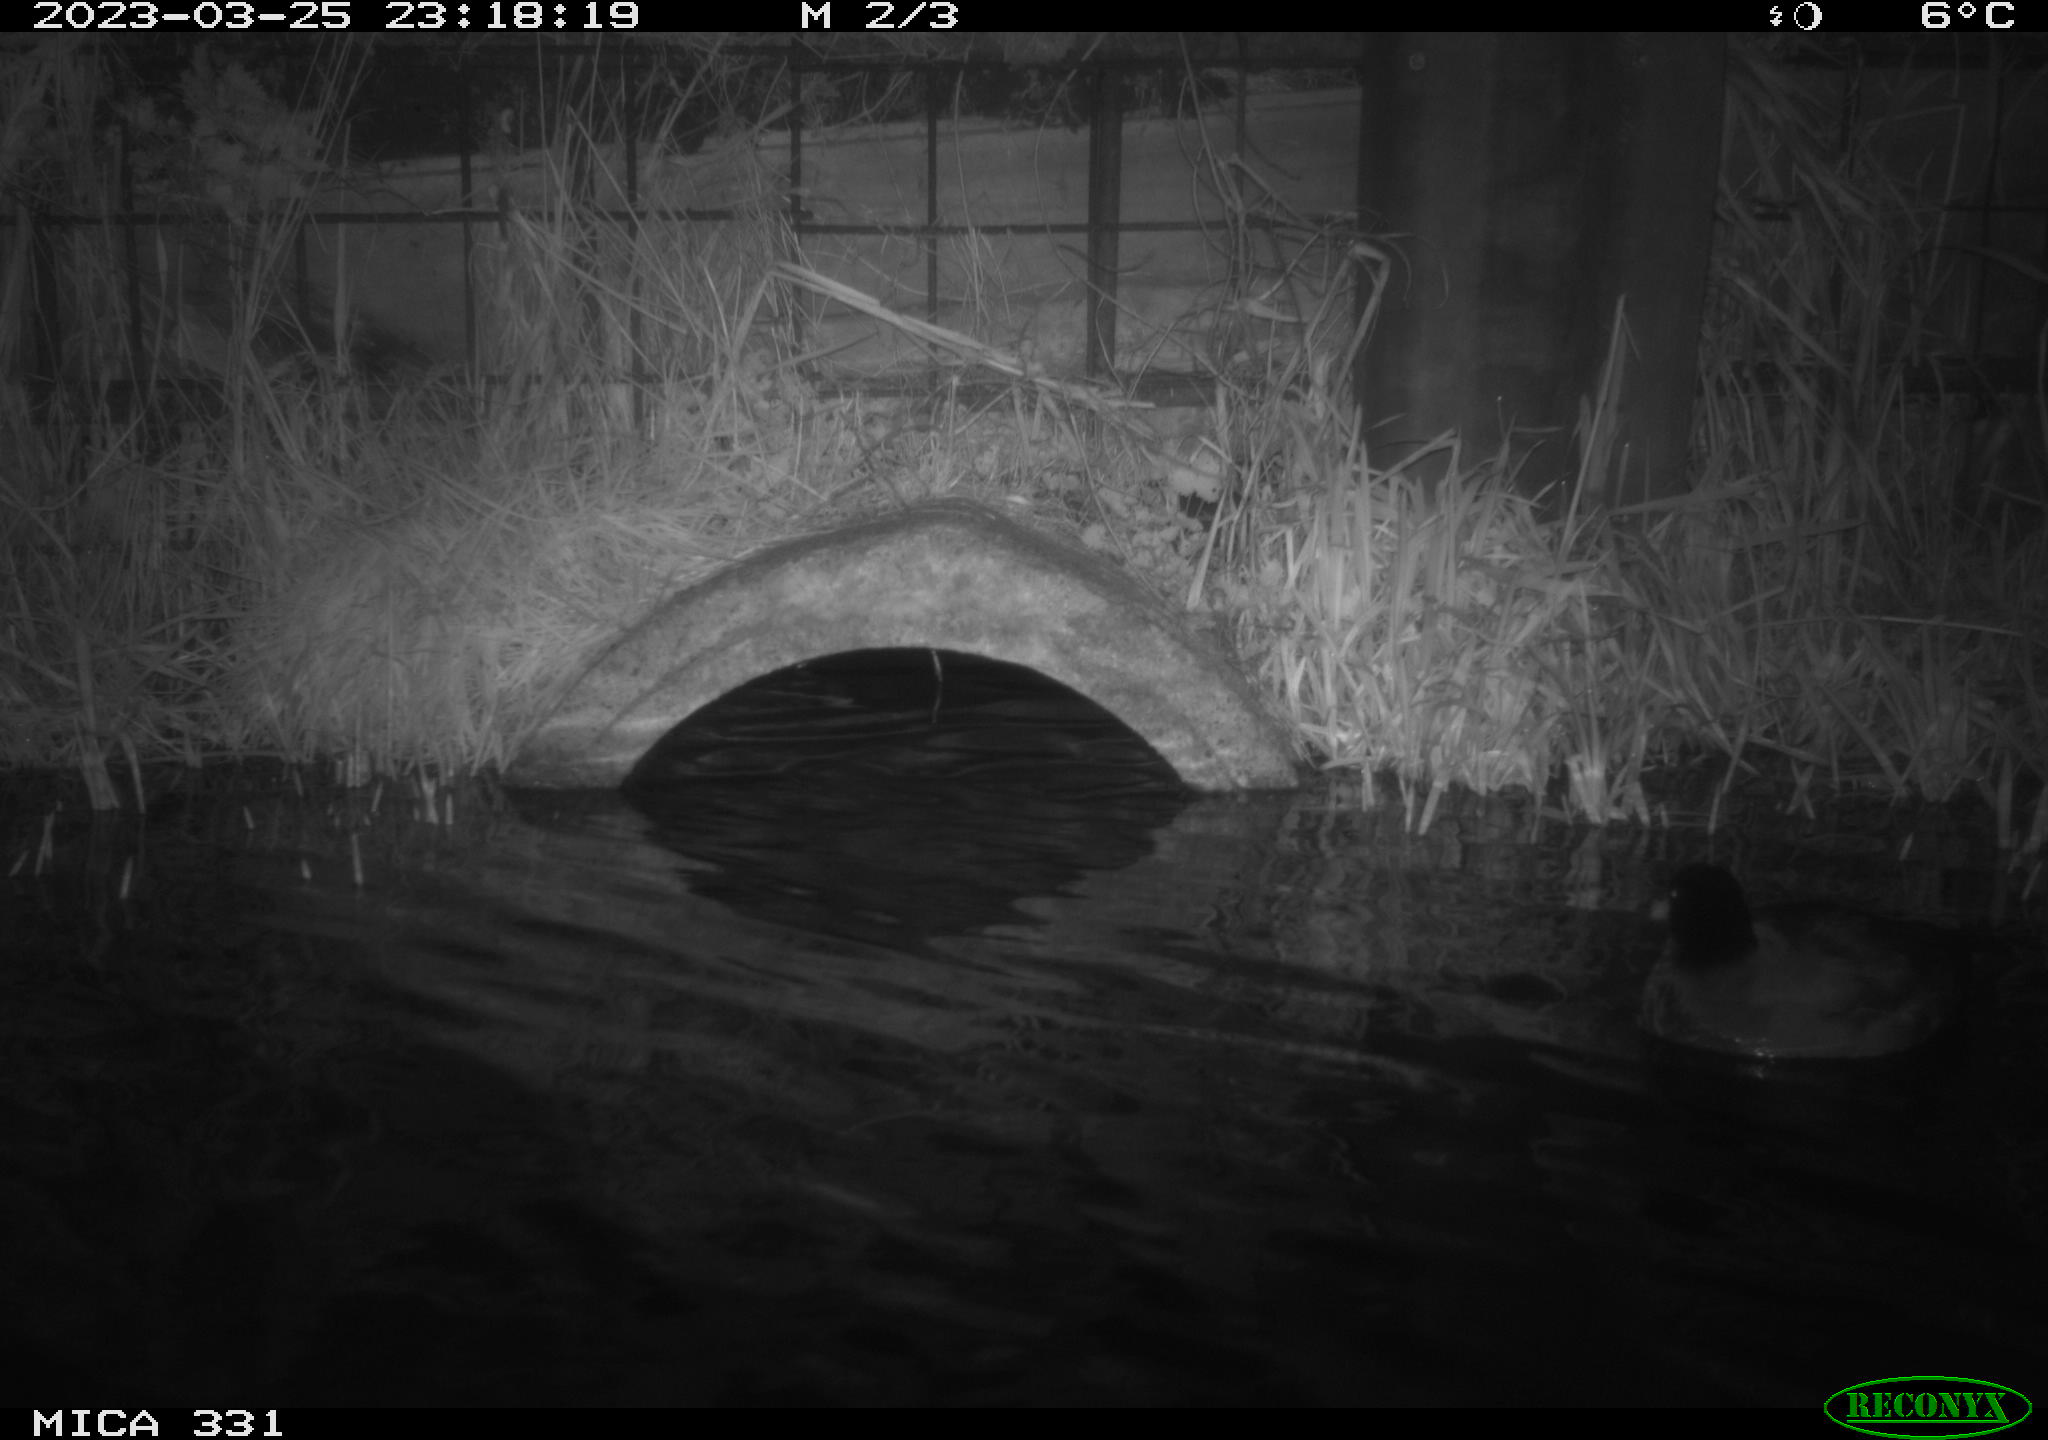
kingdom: Animalia
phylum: Chordata
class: Aves
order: Anseriformes
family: Anatidae
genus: Anas
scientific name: Anas
